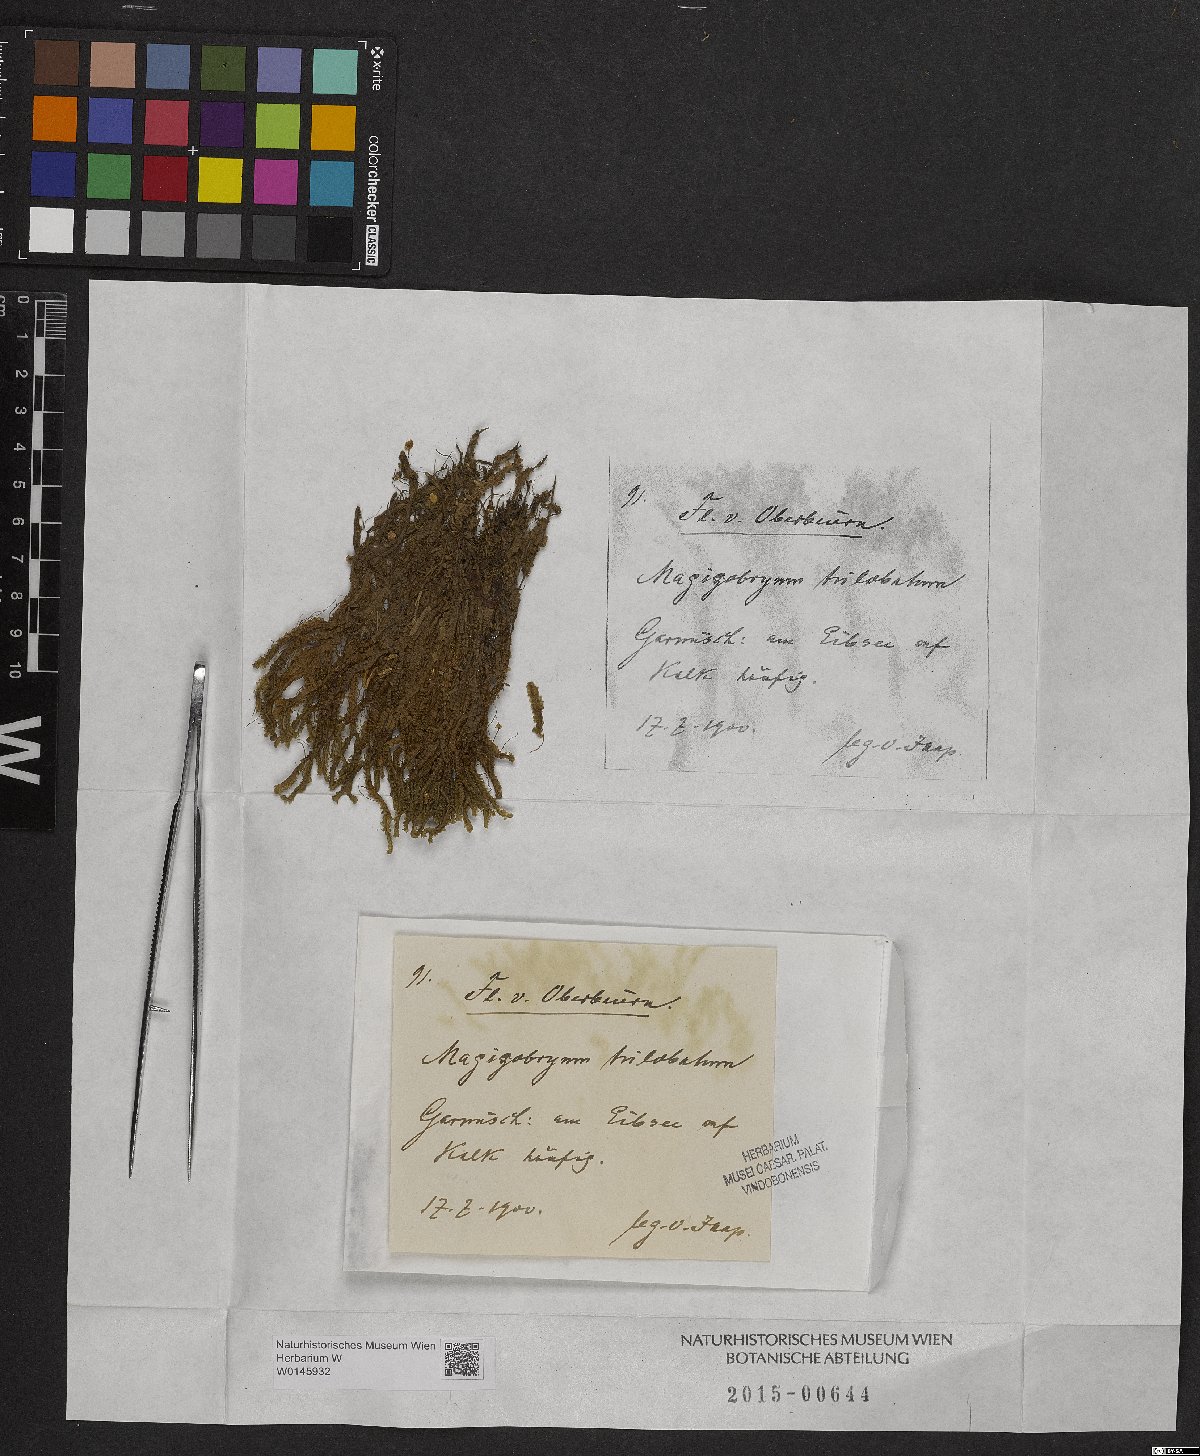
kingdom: Plantae
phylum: Marchantiophyta
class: Jungermanniopsida
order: Jungermanniales
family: Lepidoziaceae
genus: Bazzania
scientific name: Bazzania trilobata
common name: Three-lobed whipwort
